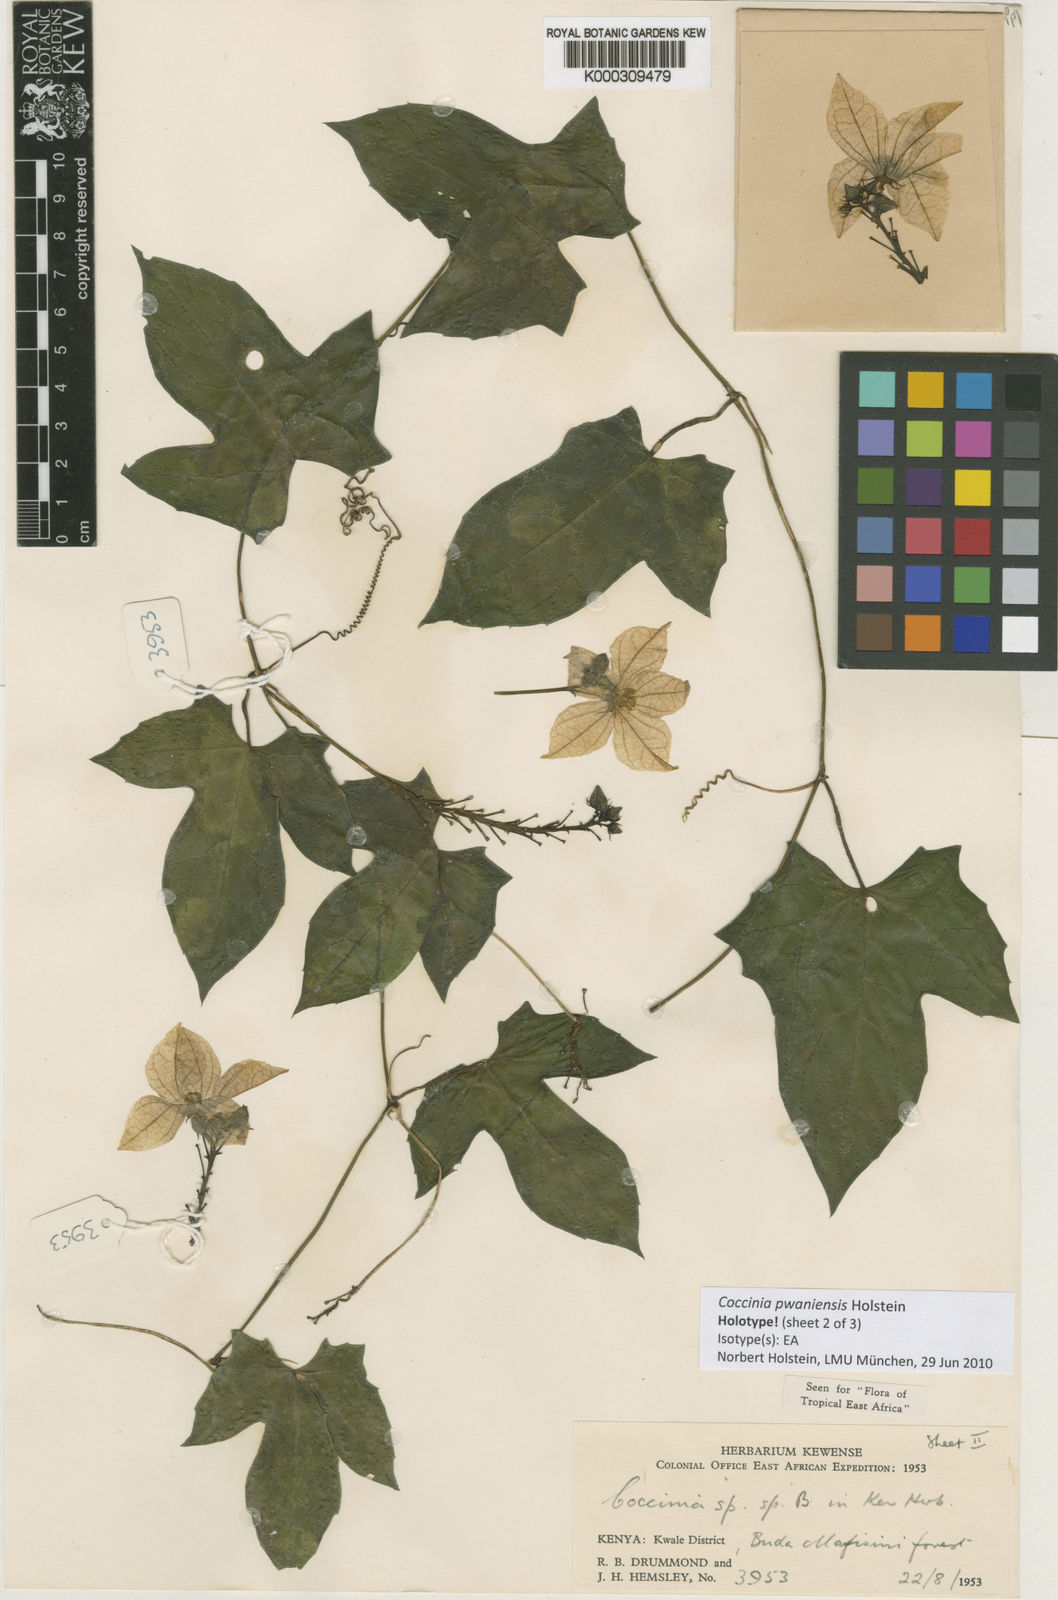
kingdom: Plantae
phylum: Tracheophyta
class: Magnoliopsida
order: Cucurbitales
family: Cucurbitaceae
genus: Coccinia
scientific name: Coccinia pwaniensis
